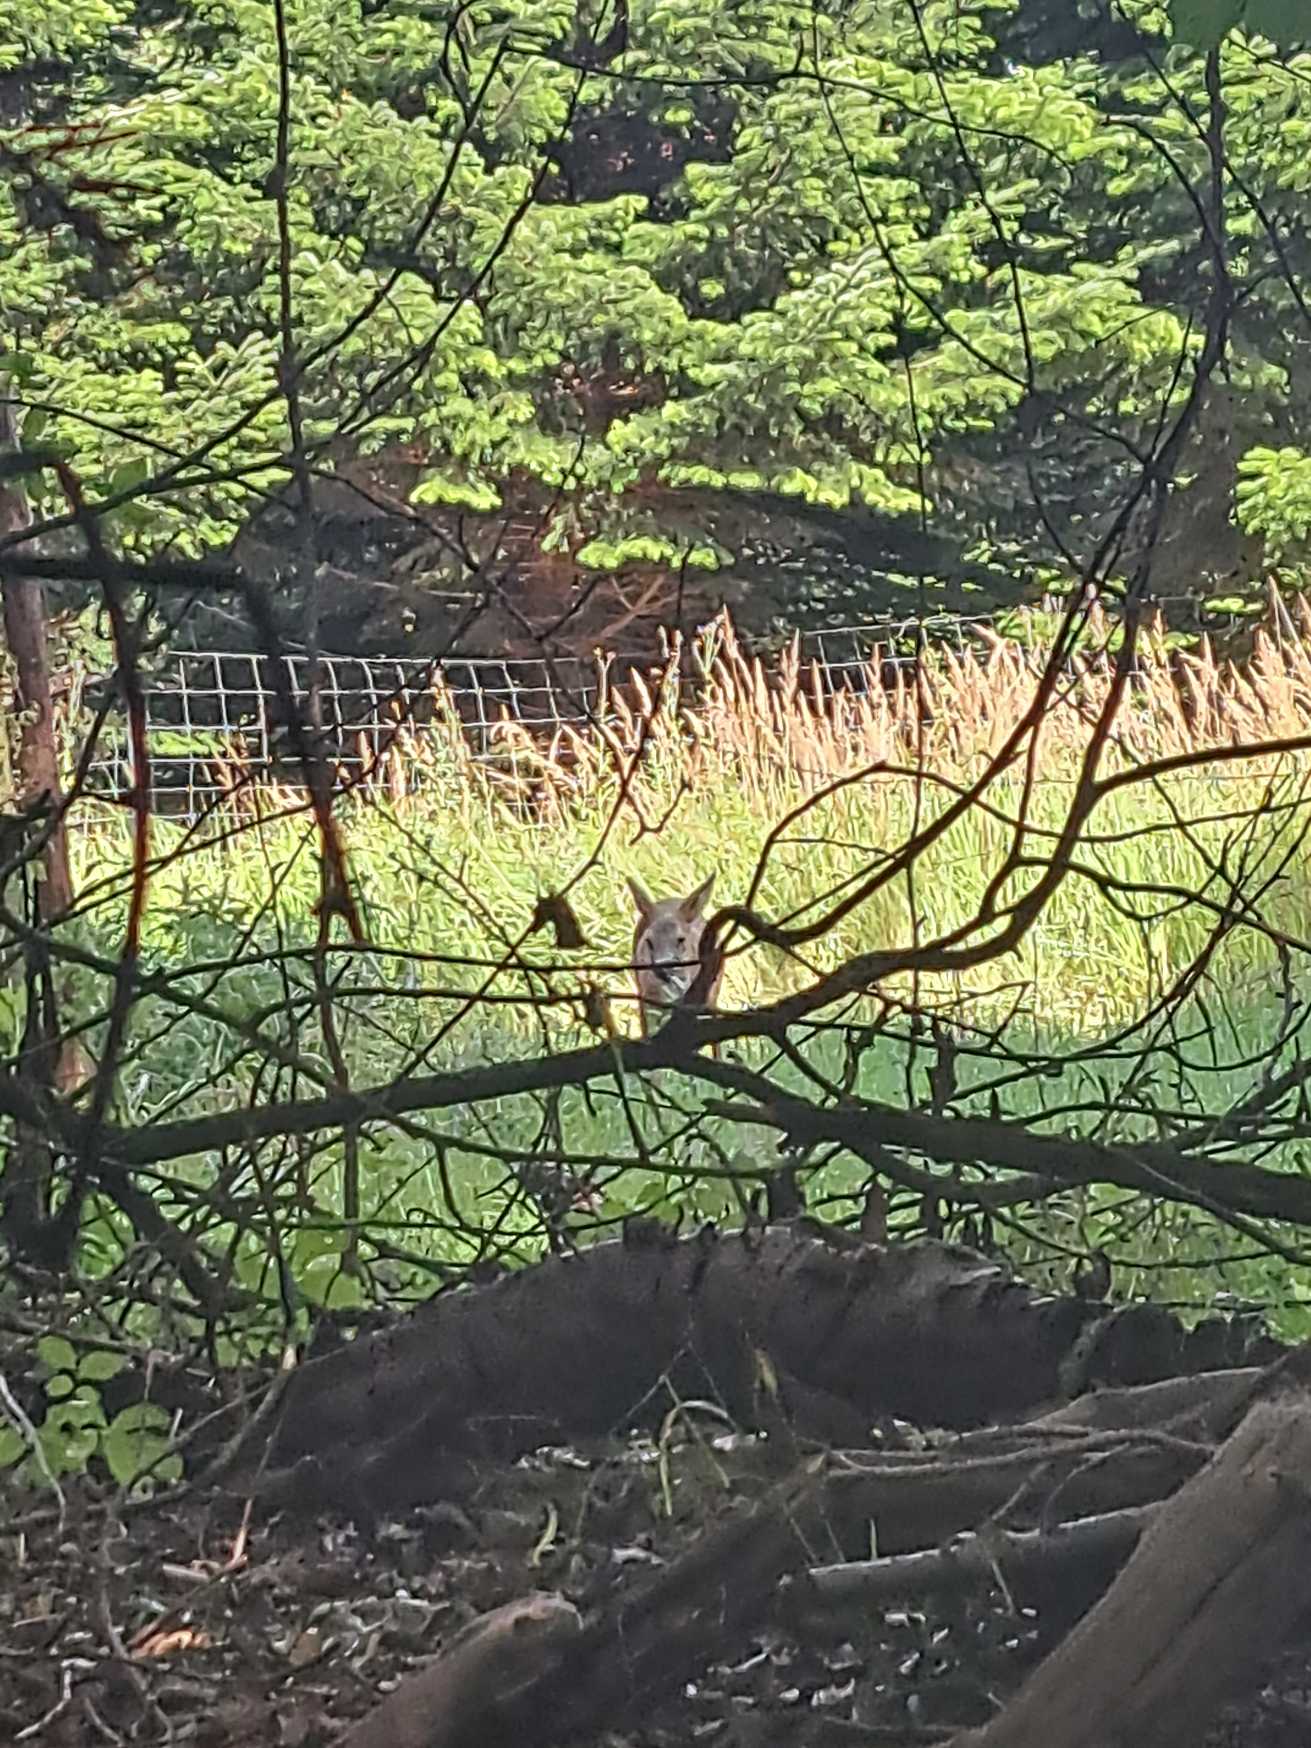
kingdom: Animalia
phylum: Chordata
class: Mammalia
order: Artiodactyla
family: Cervidae
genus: Capreolus
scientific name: Capreolus capreolus
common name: Rådyr
